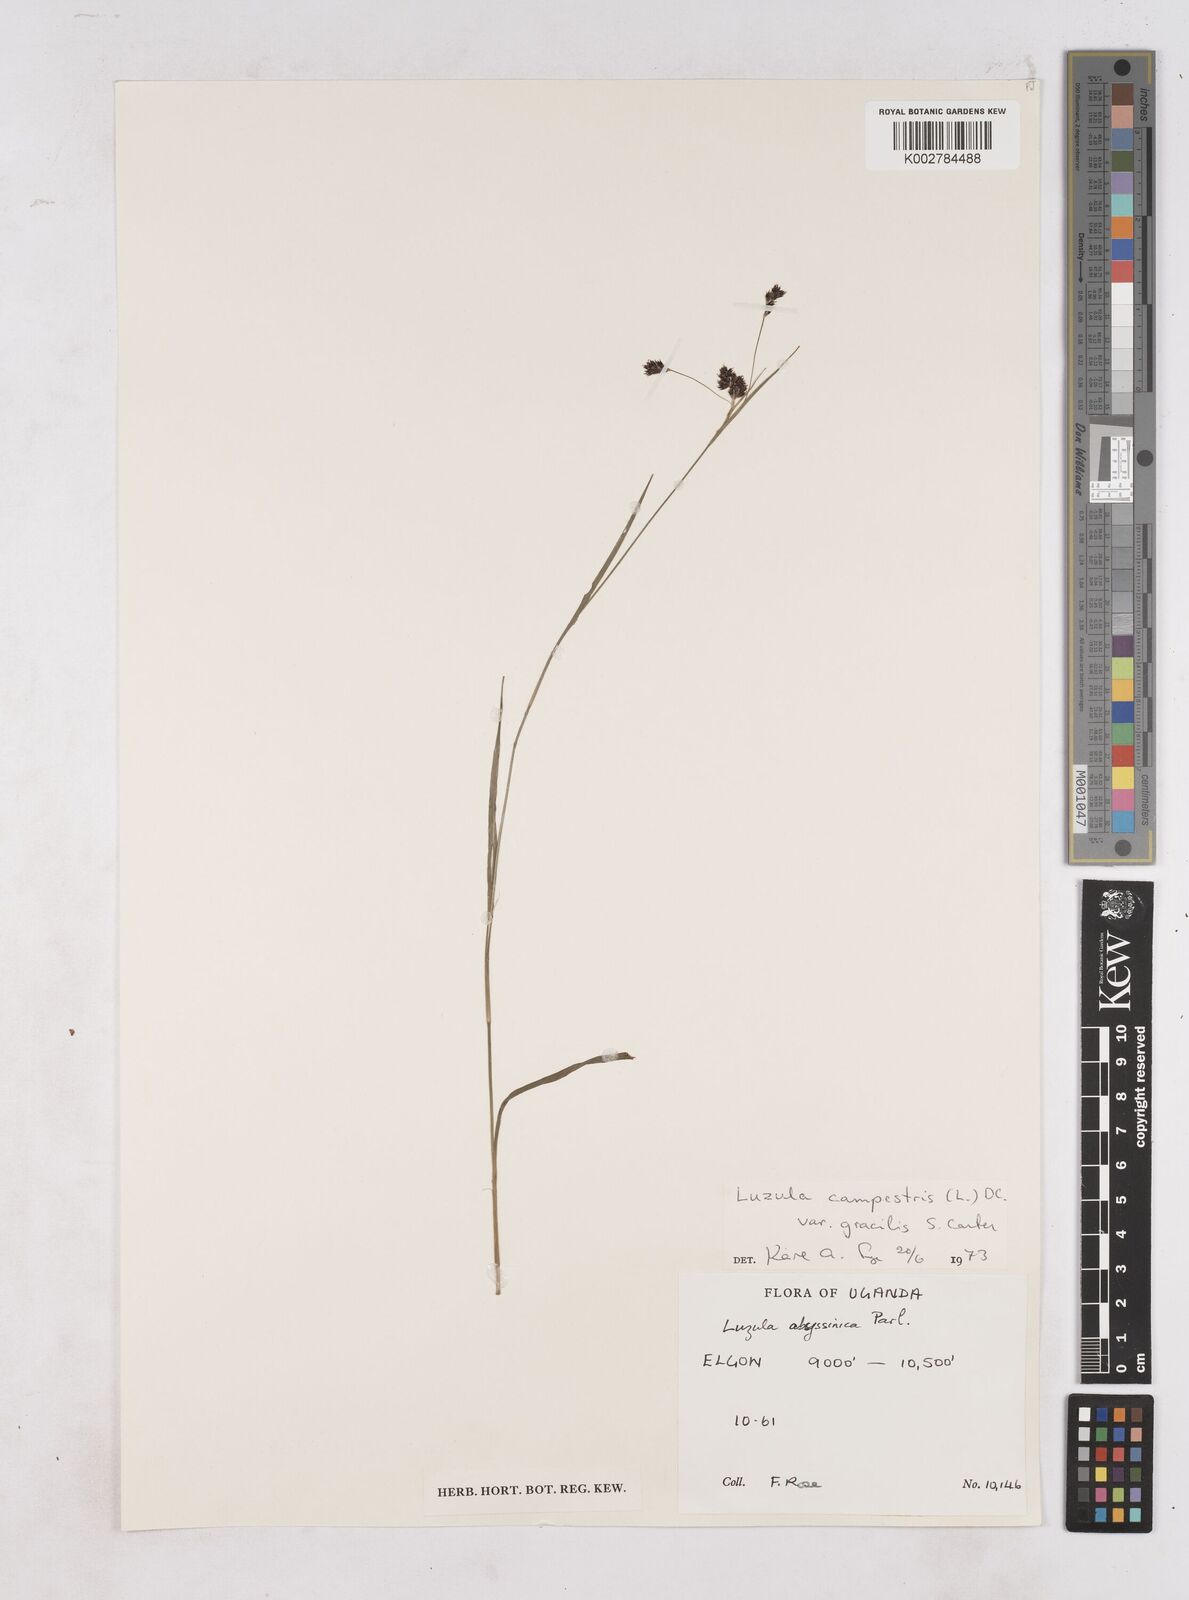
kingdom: Plantae
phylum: Tracheophyta
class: Liliopsida
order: Poales
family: Juncaceae
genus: Luzula
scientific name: Luzula campestris
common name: Field wood-rush
